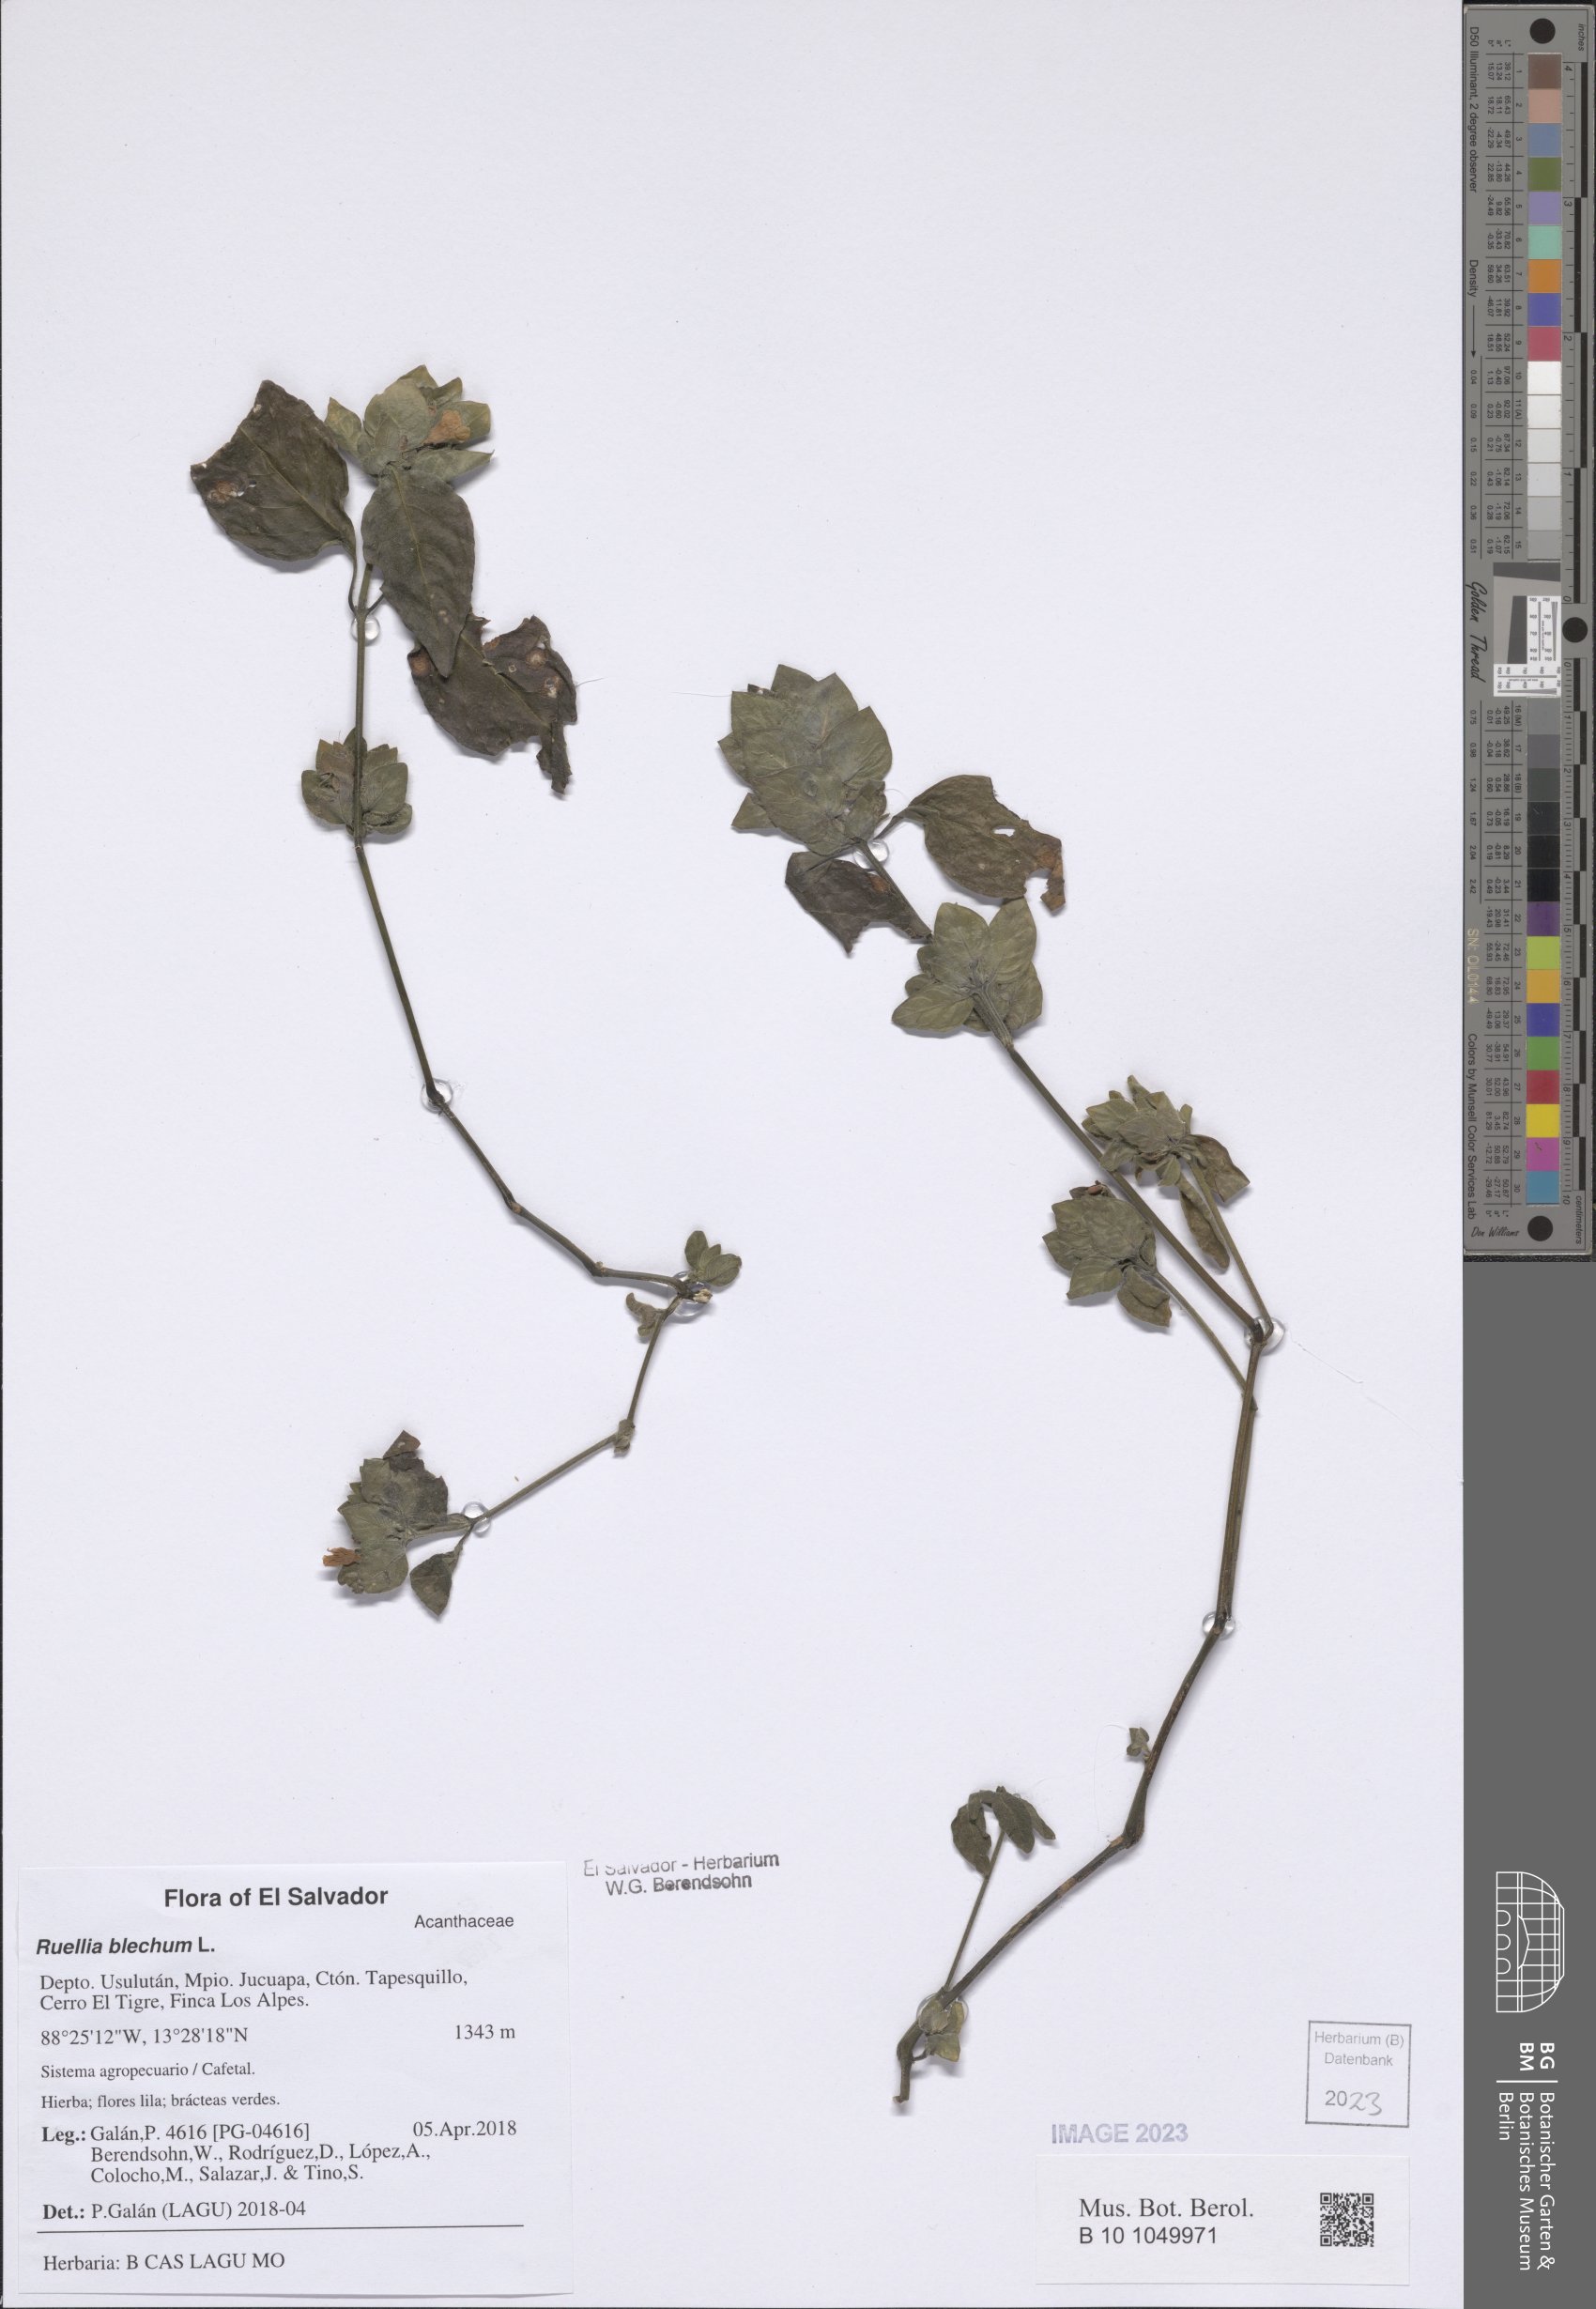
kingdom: Plantae
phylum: Tracheophyta
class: Magnoliopsida
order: Lamiales
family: Acanthaceae
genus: Ruellia
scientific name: Ruellia blechum
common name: Browne's blechum
